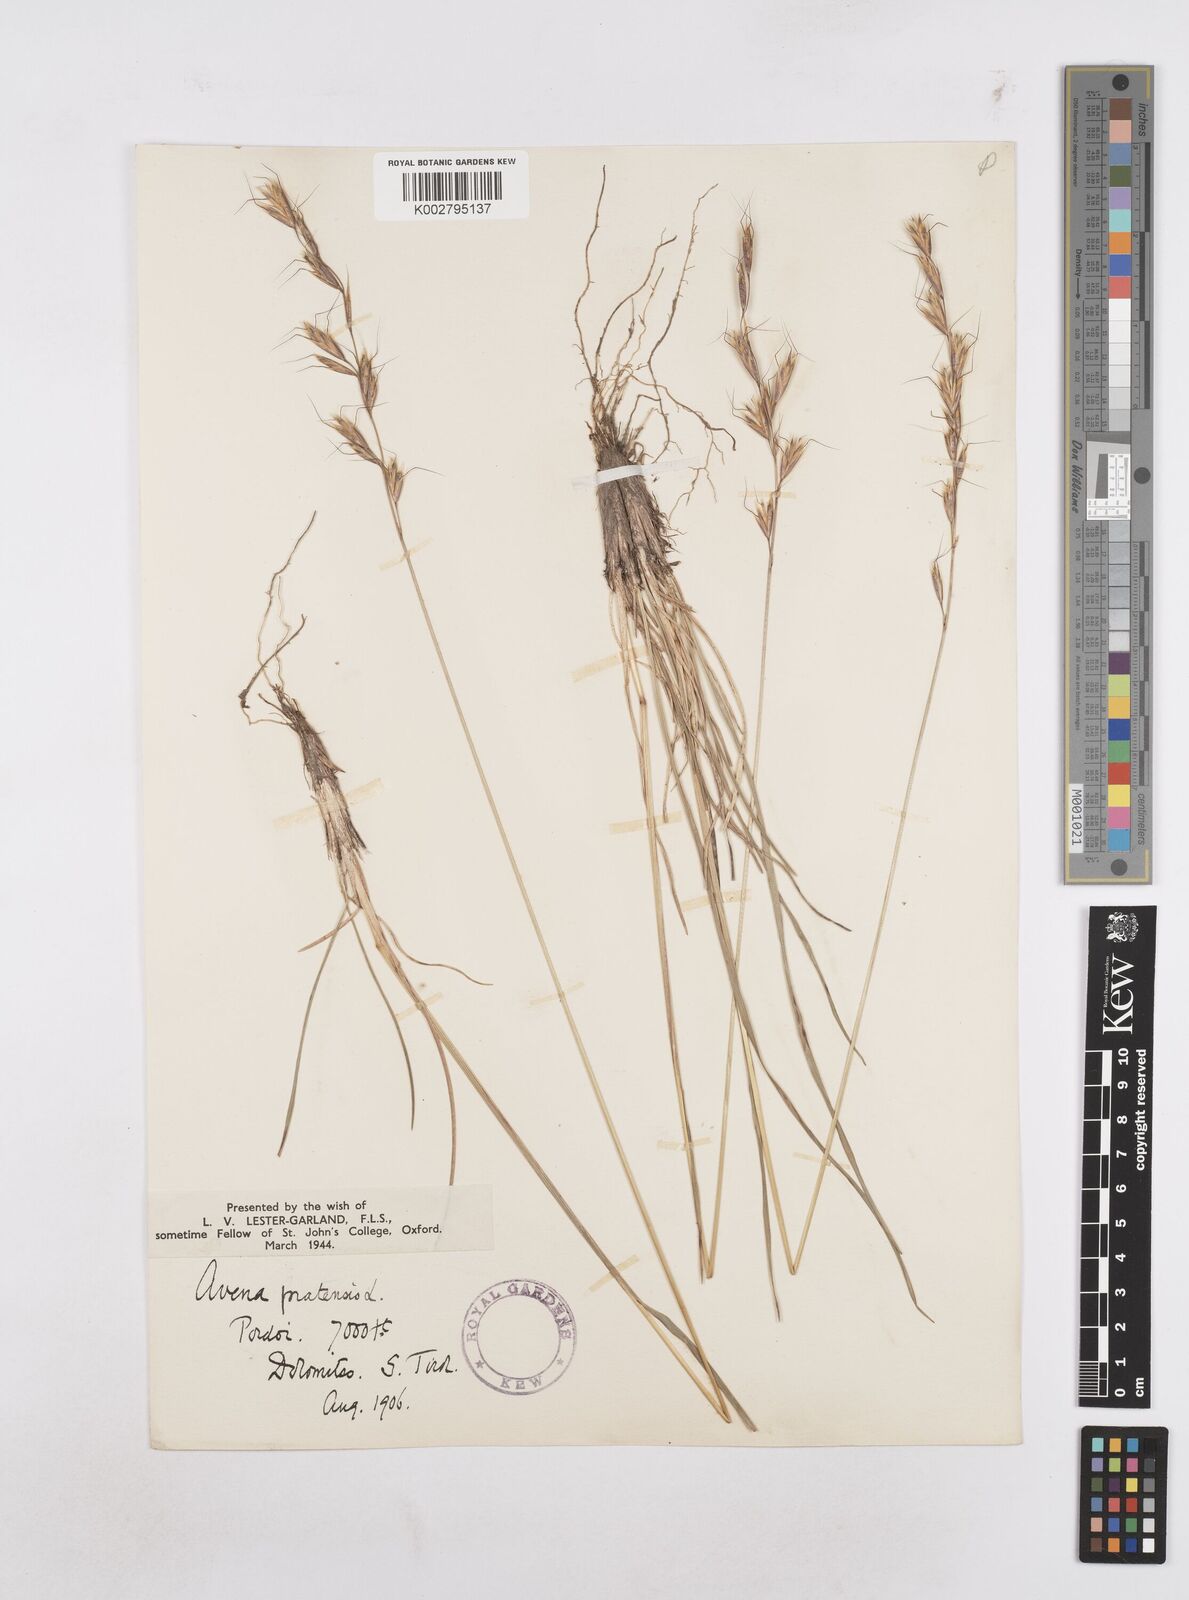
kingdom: Plantae
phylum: Tracheophyta
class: Liliopsida
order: Poales
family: Poaceae
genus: Helictochloa
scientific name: Helictochloa pratensis
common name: Meadow oat grass
